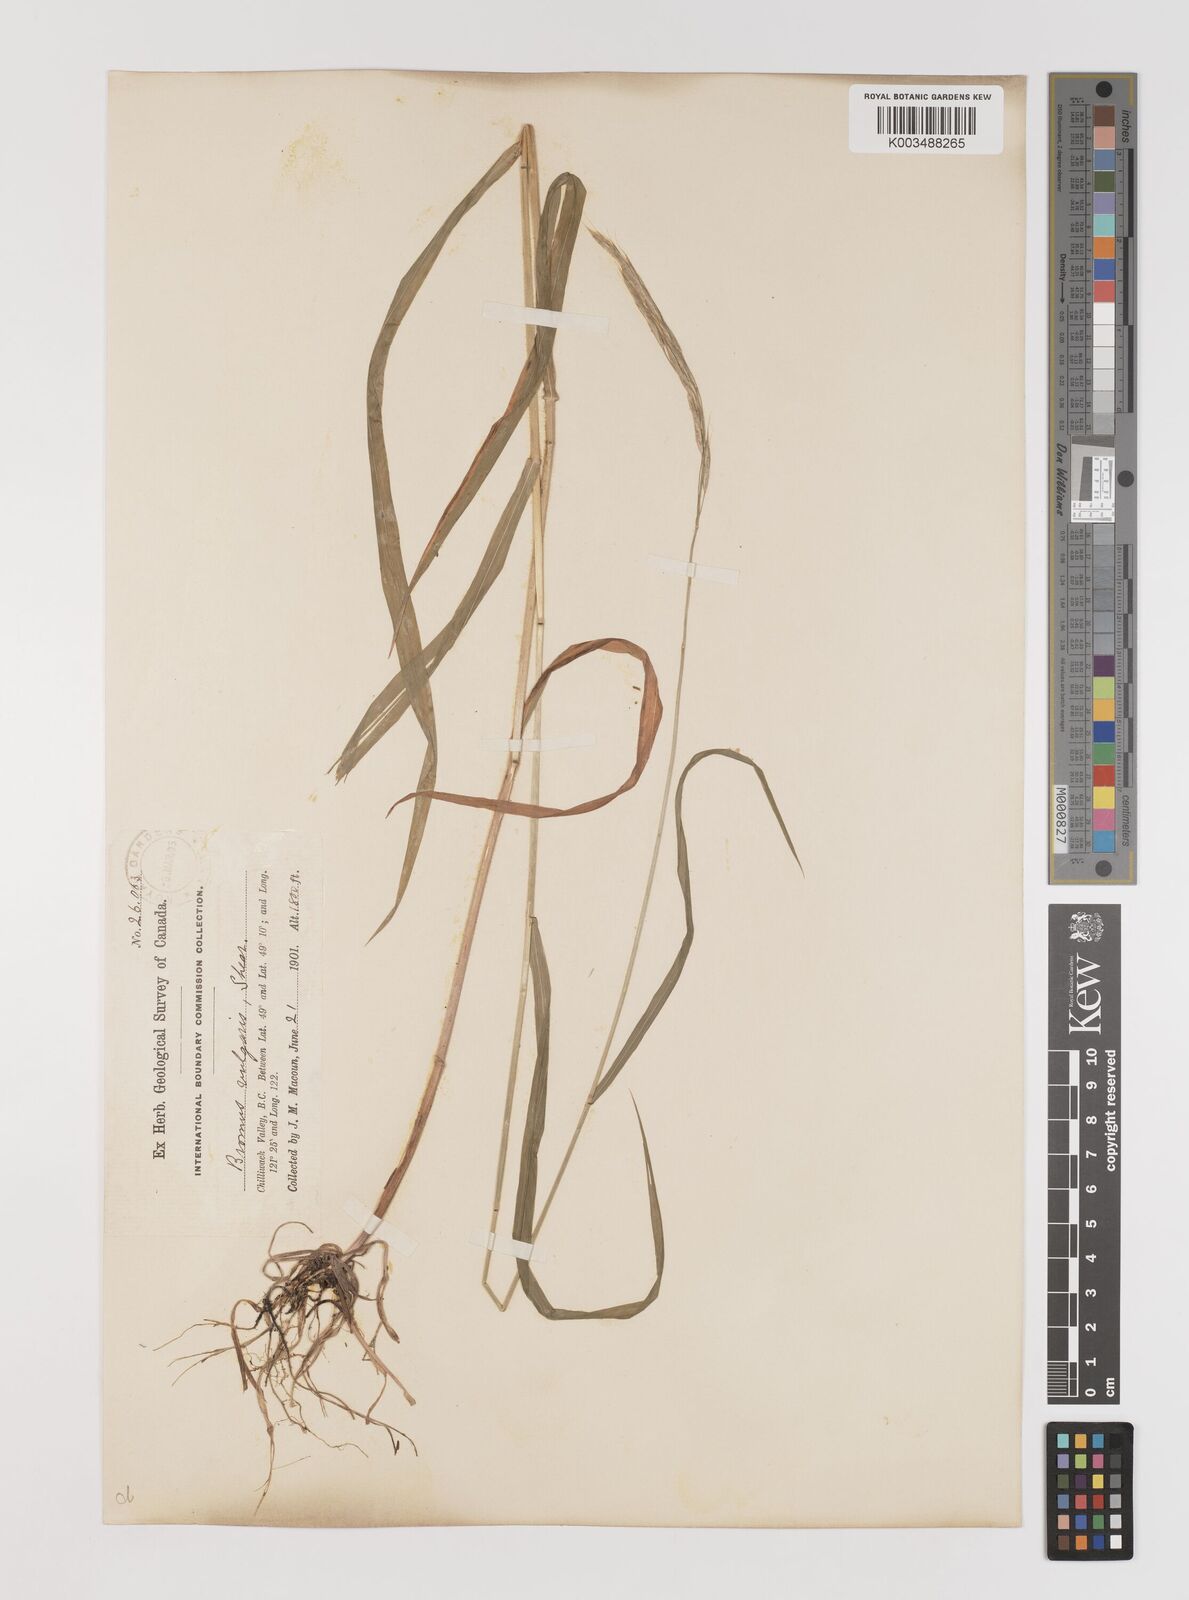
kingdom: Plantae
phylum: Tracheophyta
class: Liliopsida
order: Poales
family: Poaceae
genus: Bromus
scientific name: Bromus vulgaris
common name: Columbia brome
